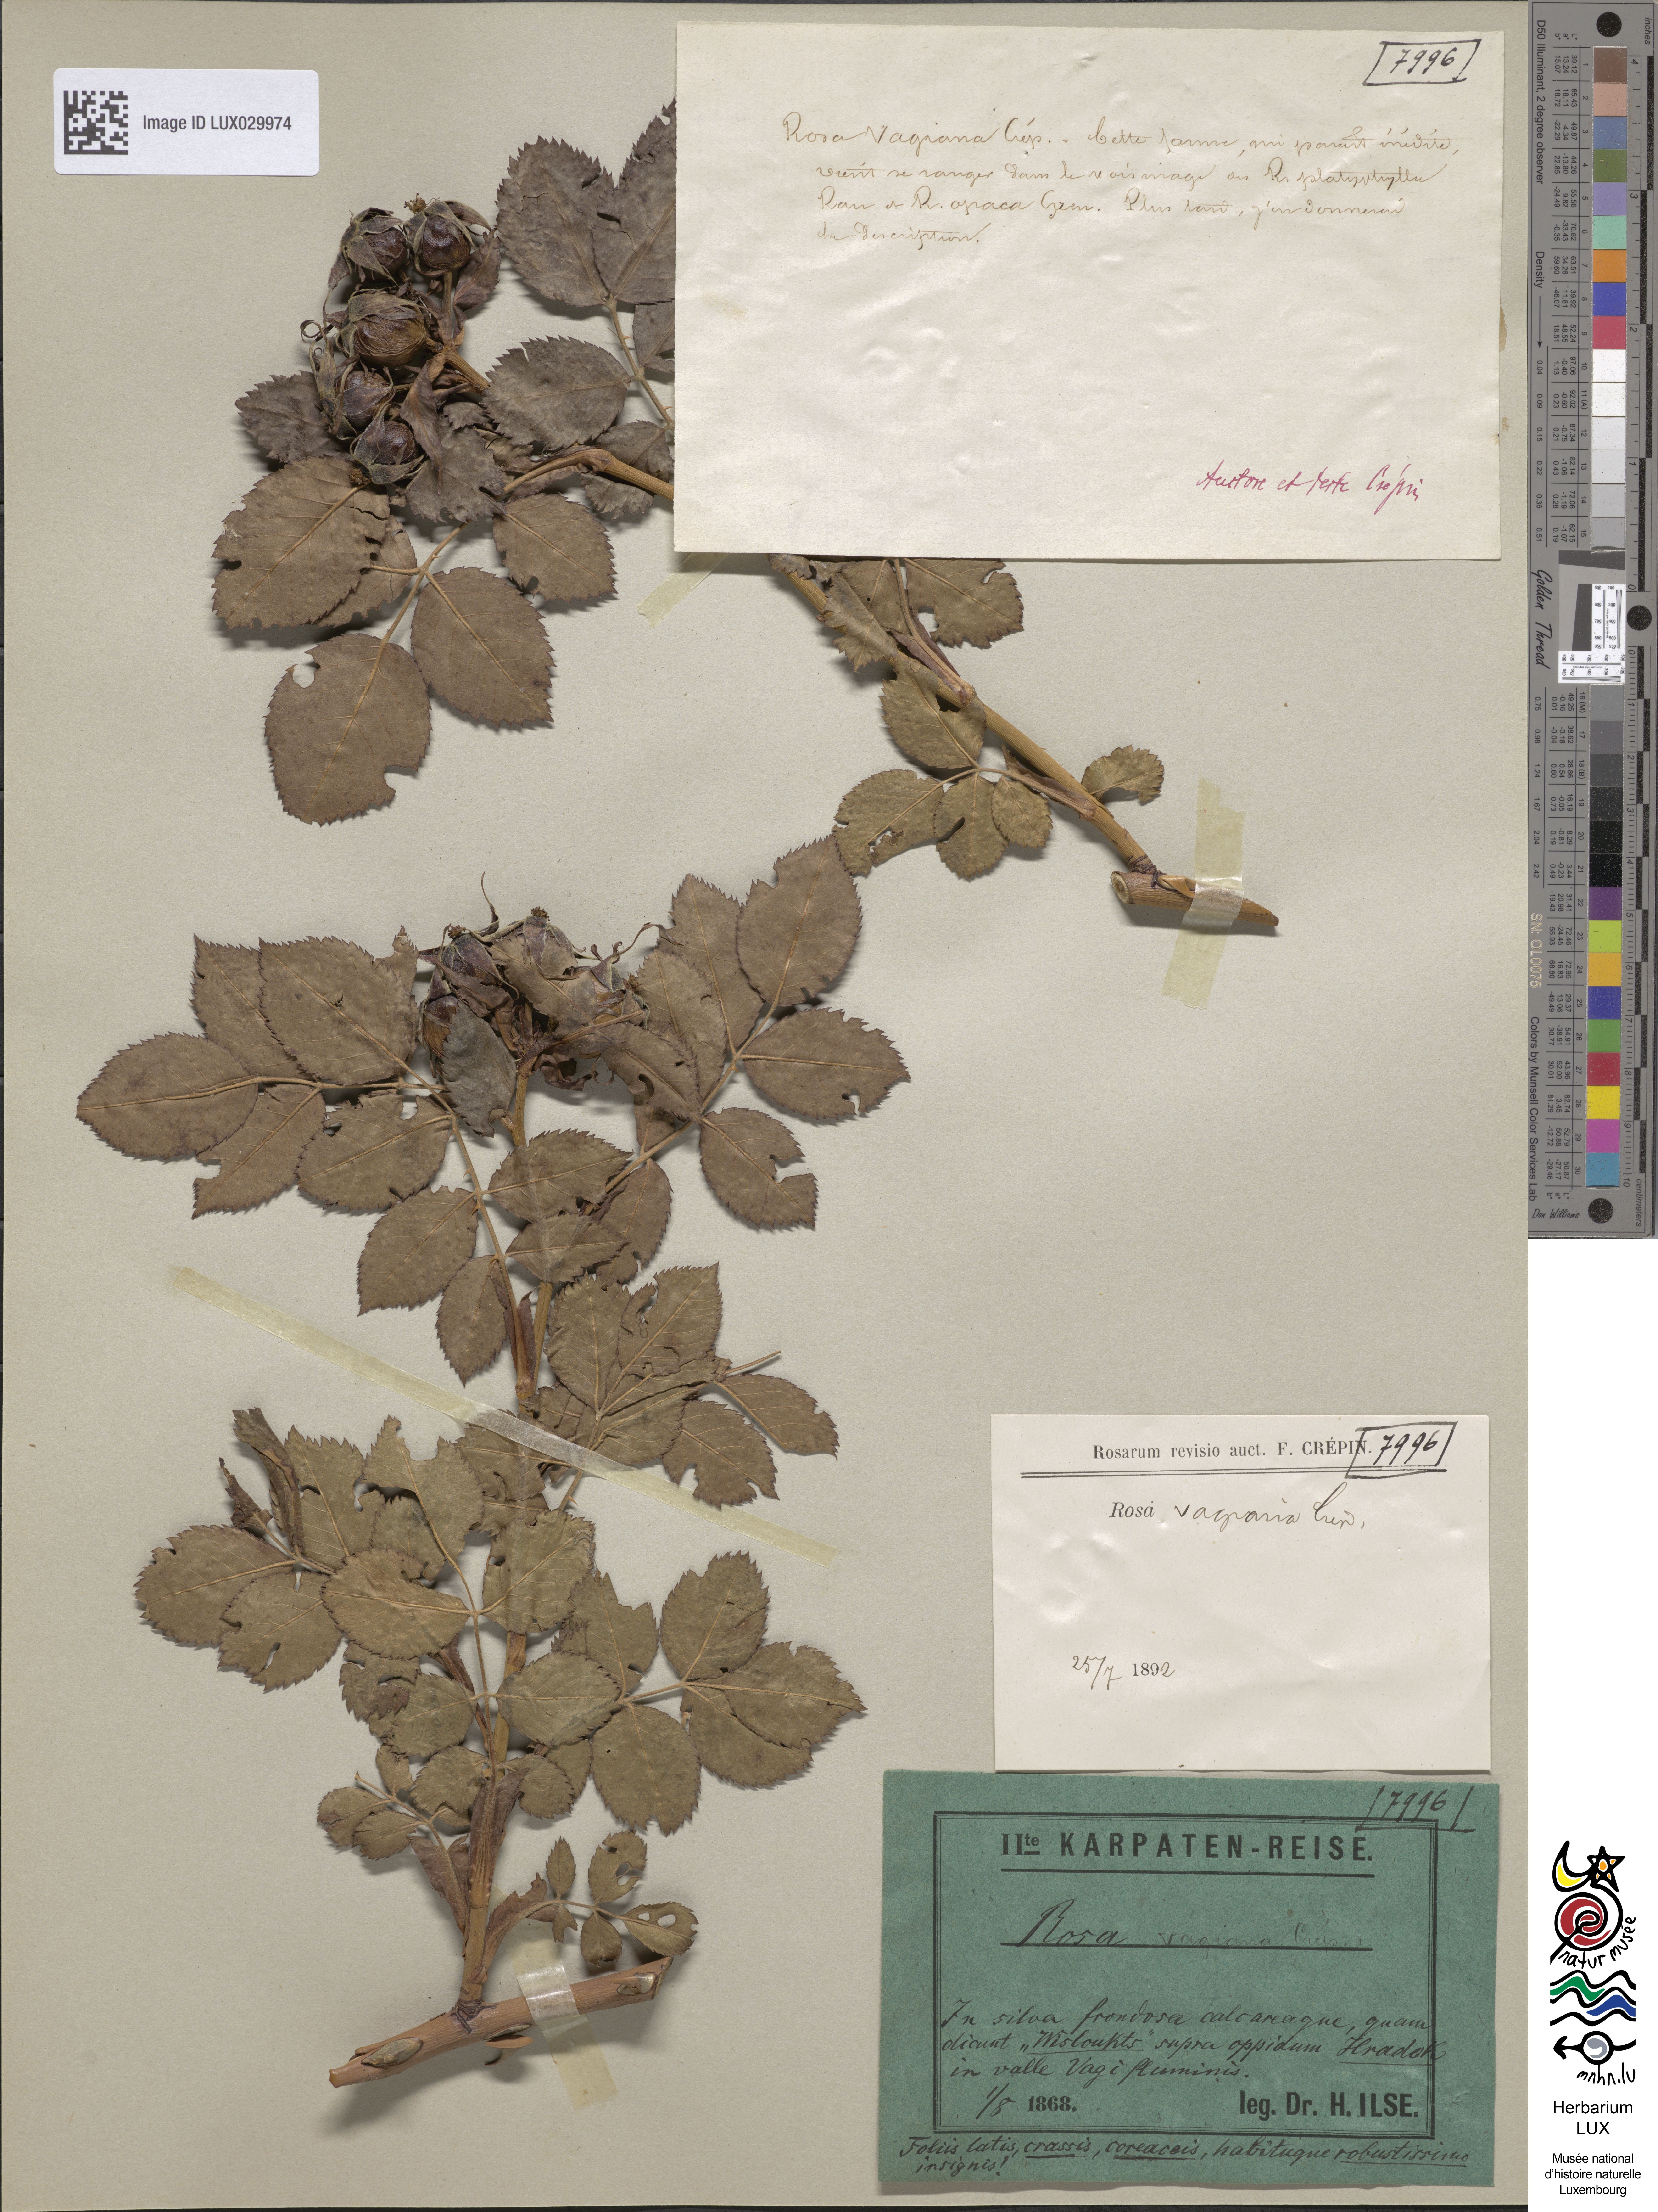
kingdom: Plantae
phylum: Tracheophyta
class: Magnoliopsida
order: Rosales
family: Rosaceae
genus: Rosa
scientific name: Rosa caesia
